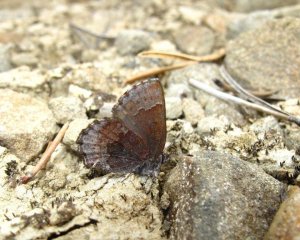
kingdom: Animalia
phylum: Arthropoda
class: Insecta
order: Lepidoptera
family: Lycaenidae
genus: Callophrys
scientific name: Callophrys polios
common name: Hoary Elfin
